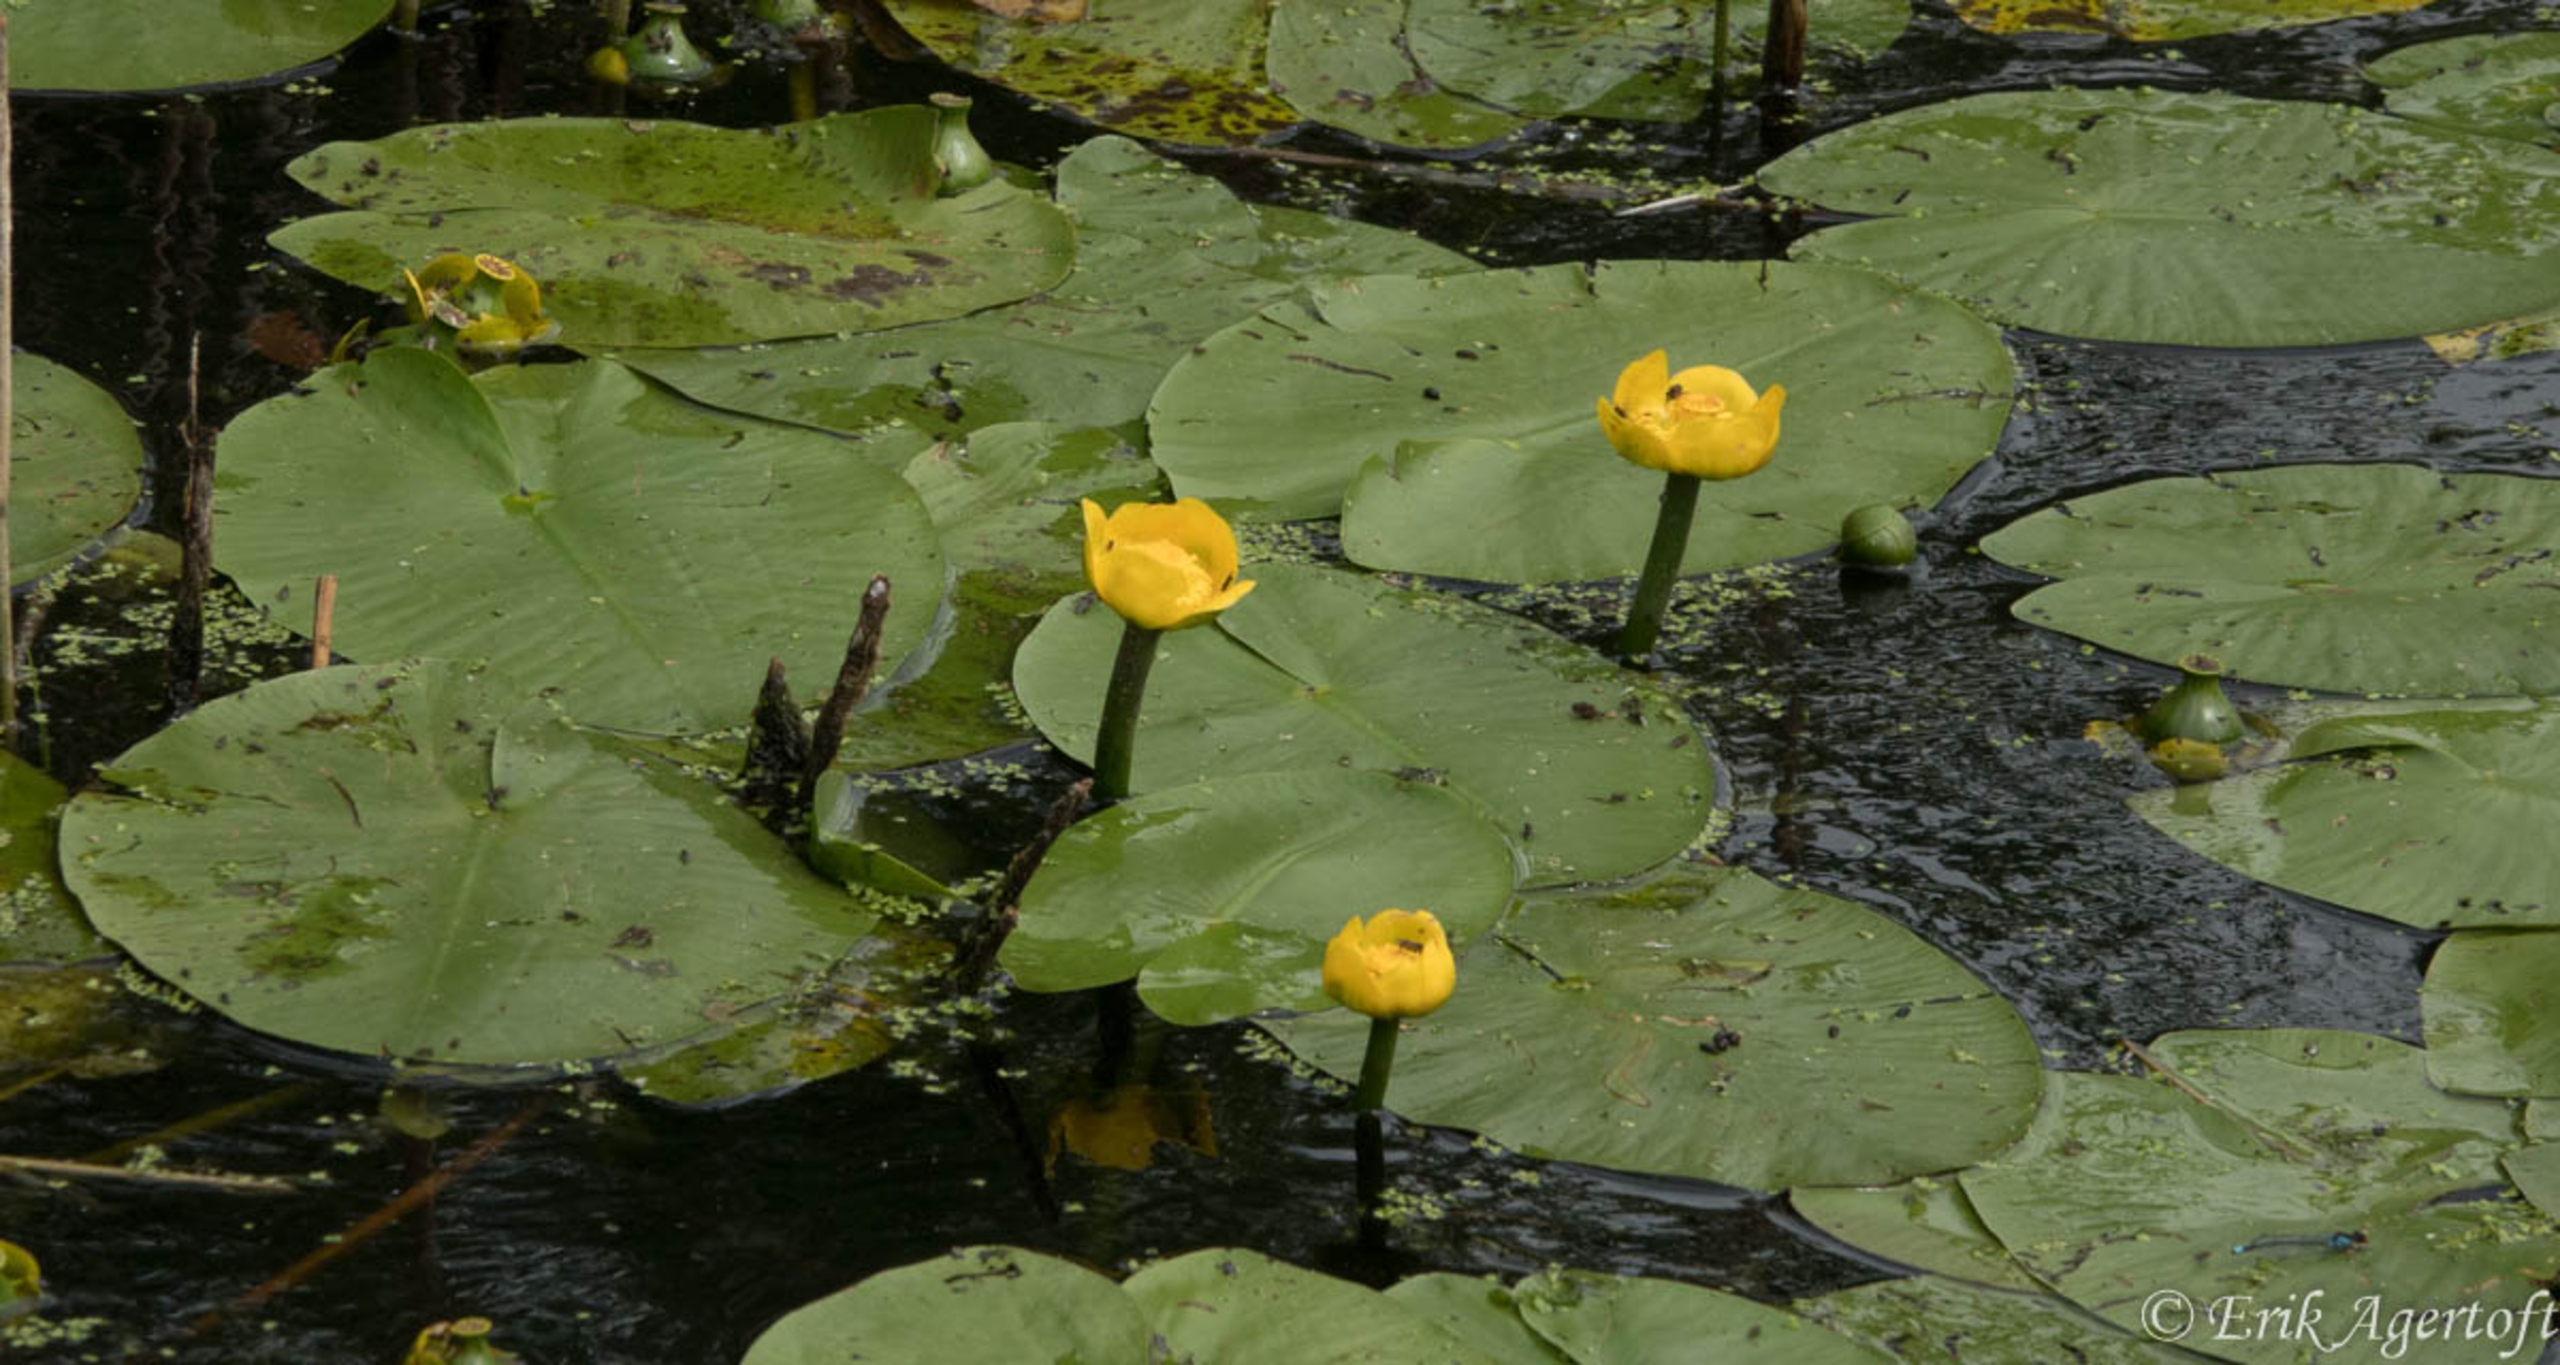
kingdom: Plantae
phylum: Tracheophyta
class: Magnoliopsida
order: Nymphaeales
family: Nymphaeaceae
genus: Nuphar
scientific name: Nuphar lutea
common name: Gul åkande
